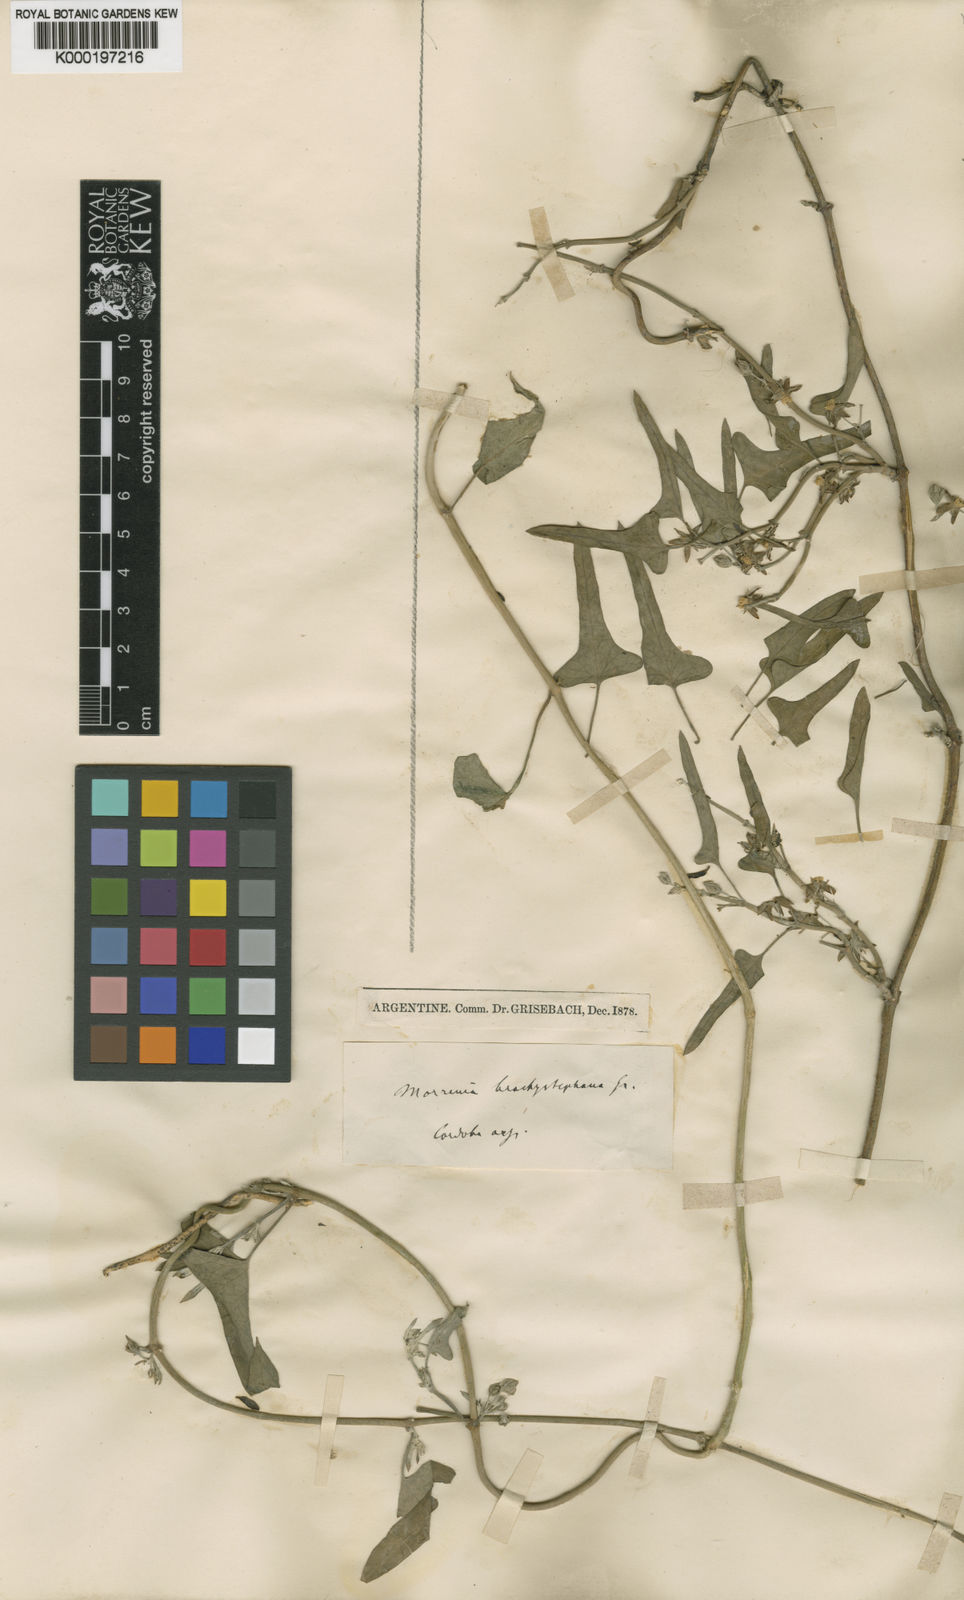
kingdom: Plantae
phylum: Tracheophyta
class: Magnoliopsida
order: Gentianales
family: Apocynaceae
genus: Araujia
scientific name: Araujia brachystephana
